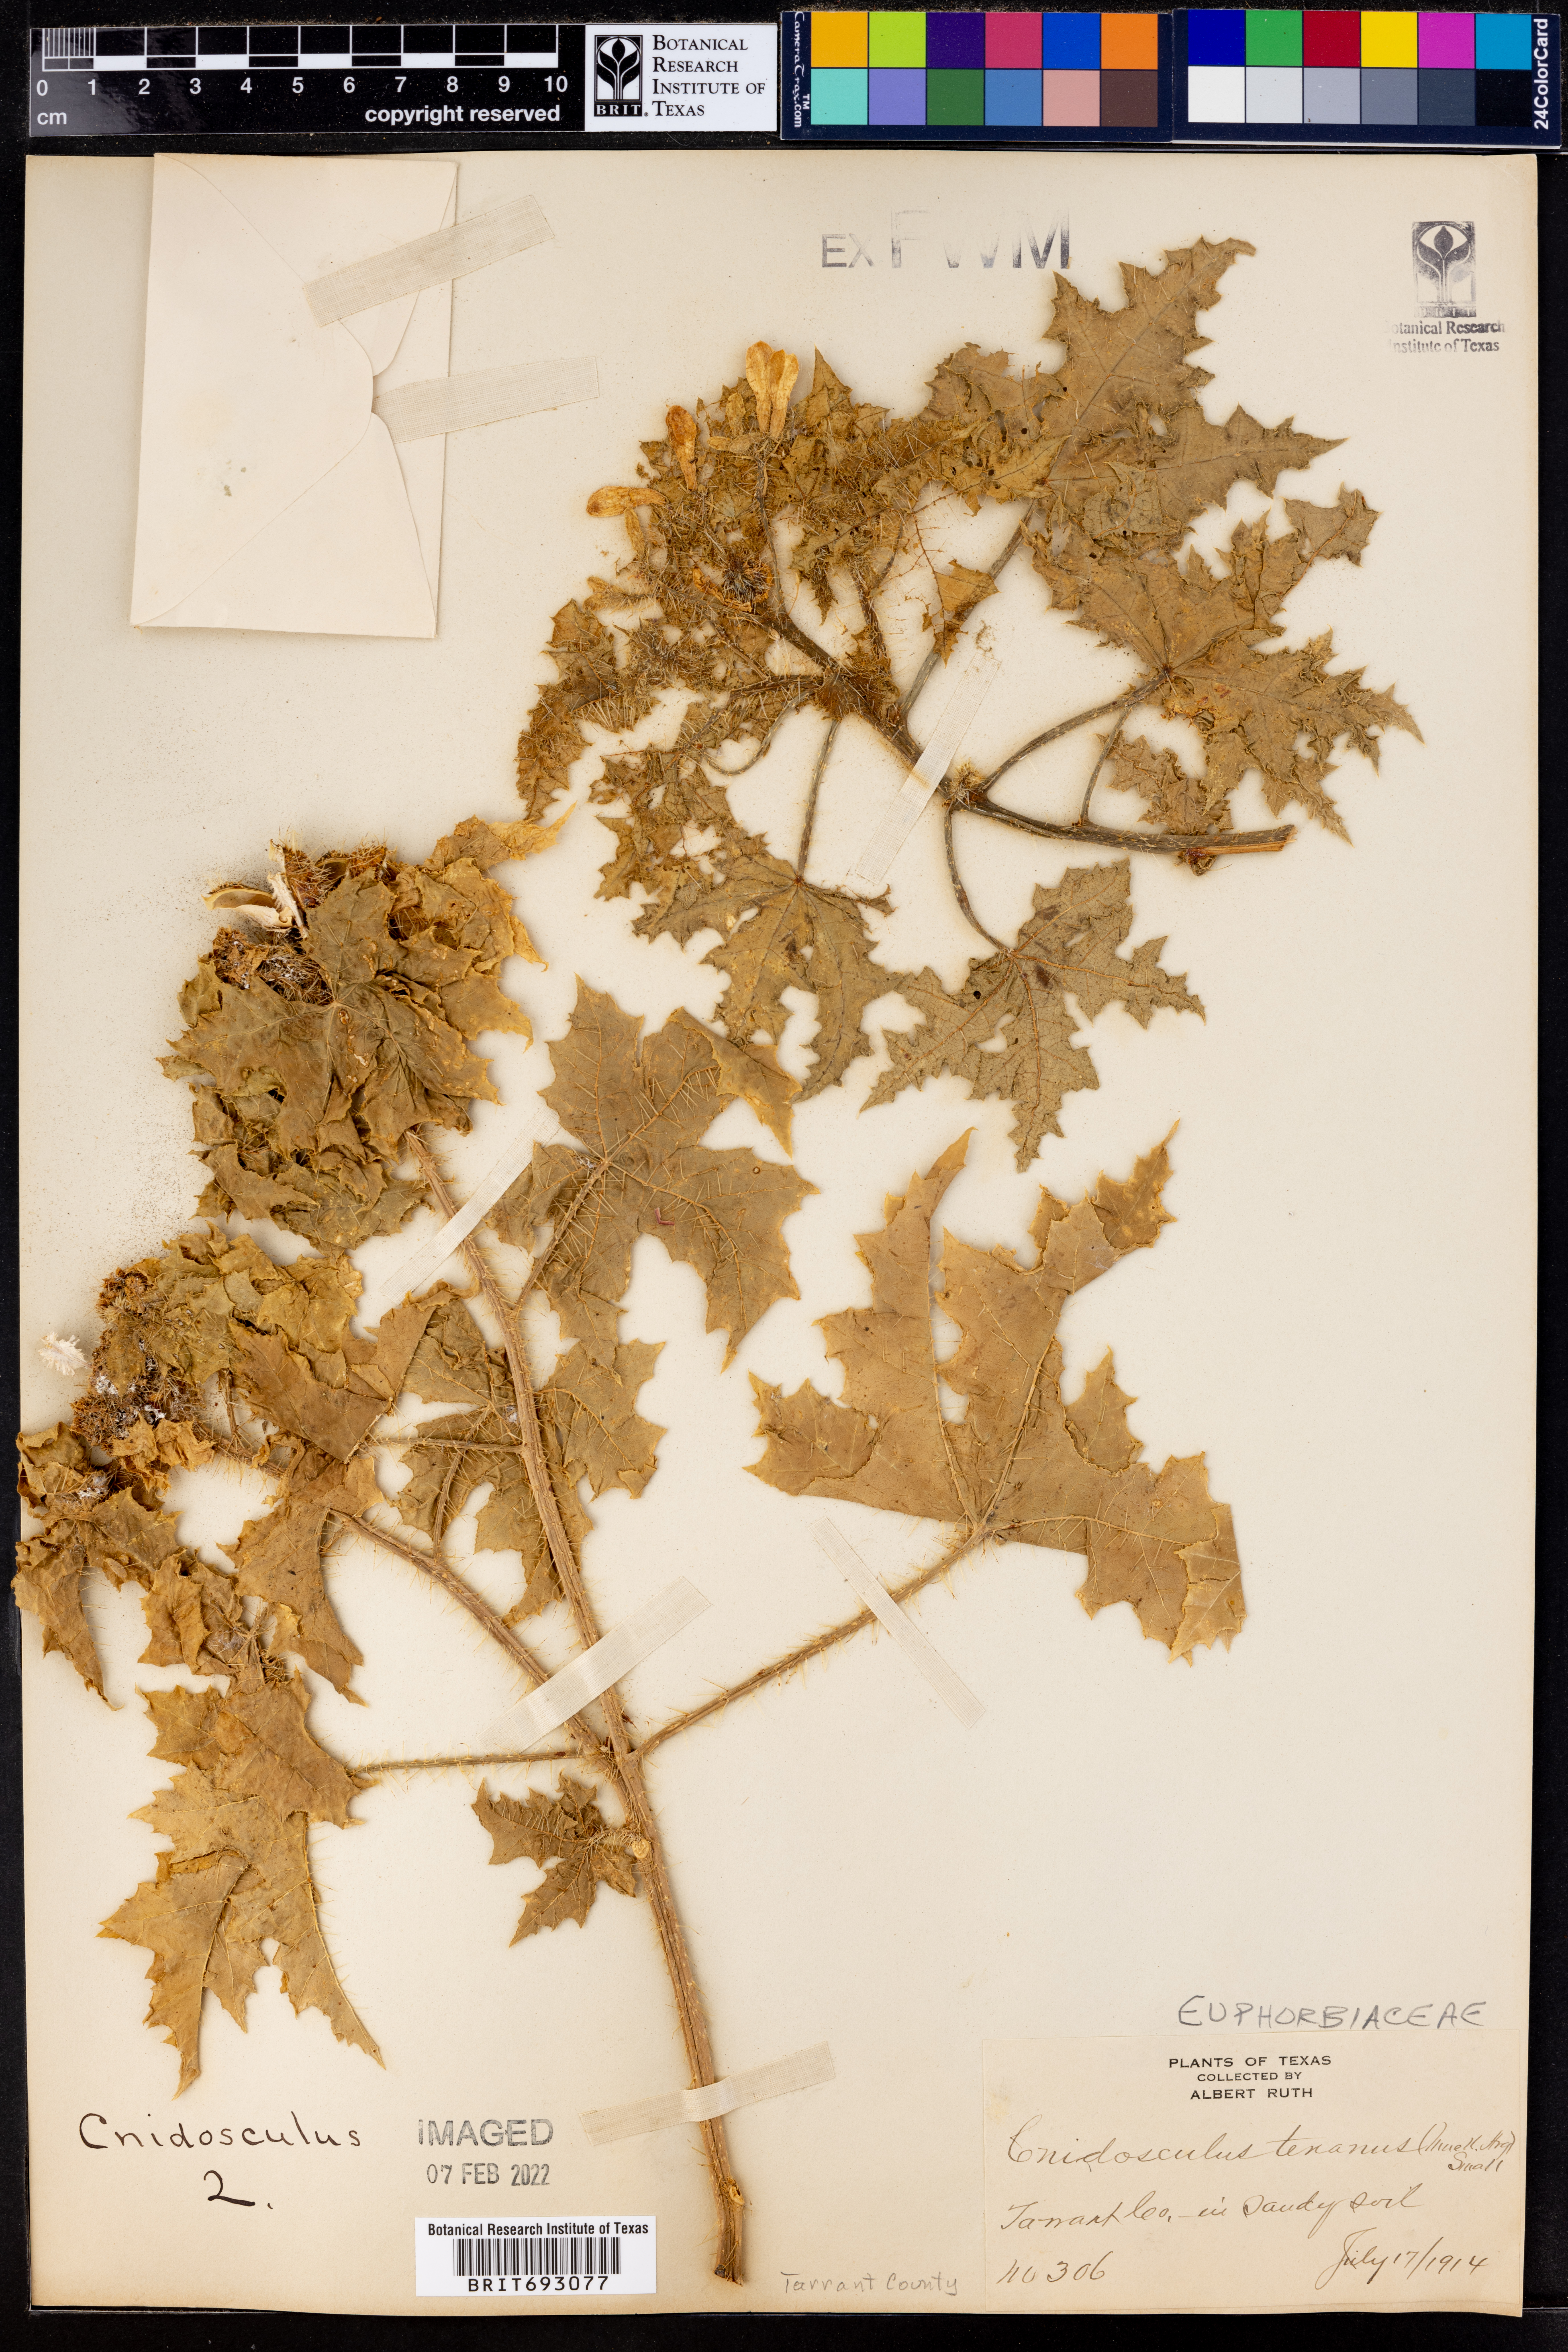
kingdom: Plantae
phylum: Tracheophyta
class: Magnoliopsida
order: Malpighiales
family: Euphorbiaceae
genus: Cnidoscolus
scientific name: Cnidoscolus texanus
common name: Texas bull-nettle
